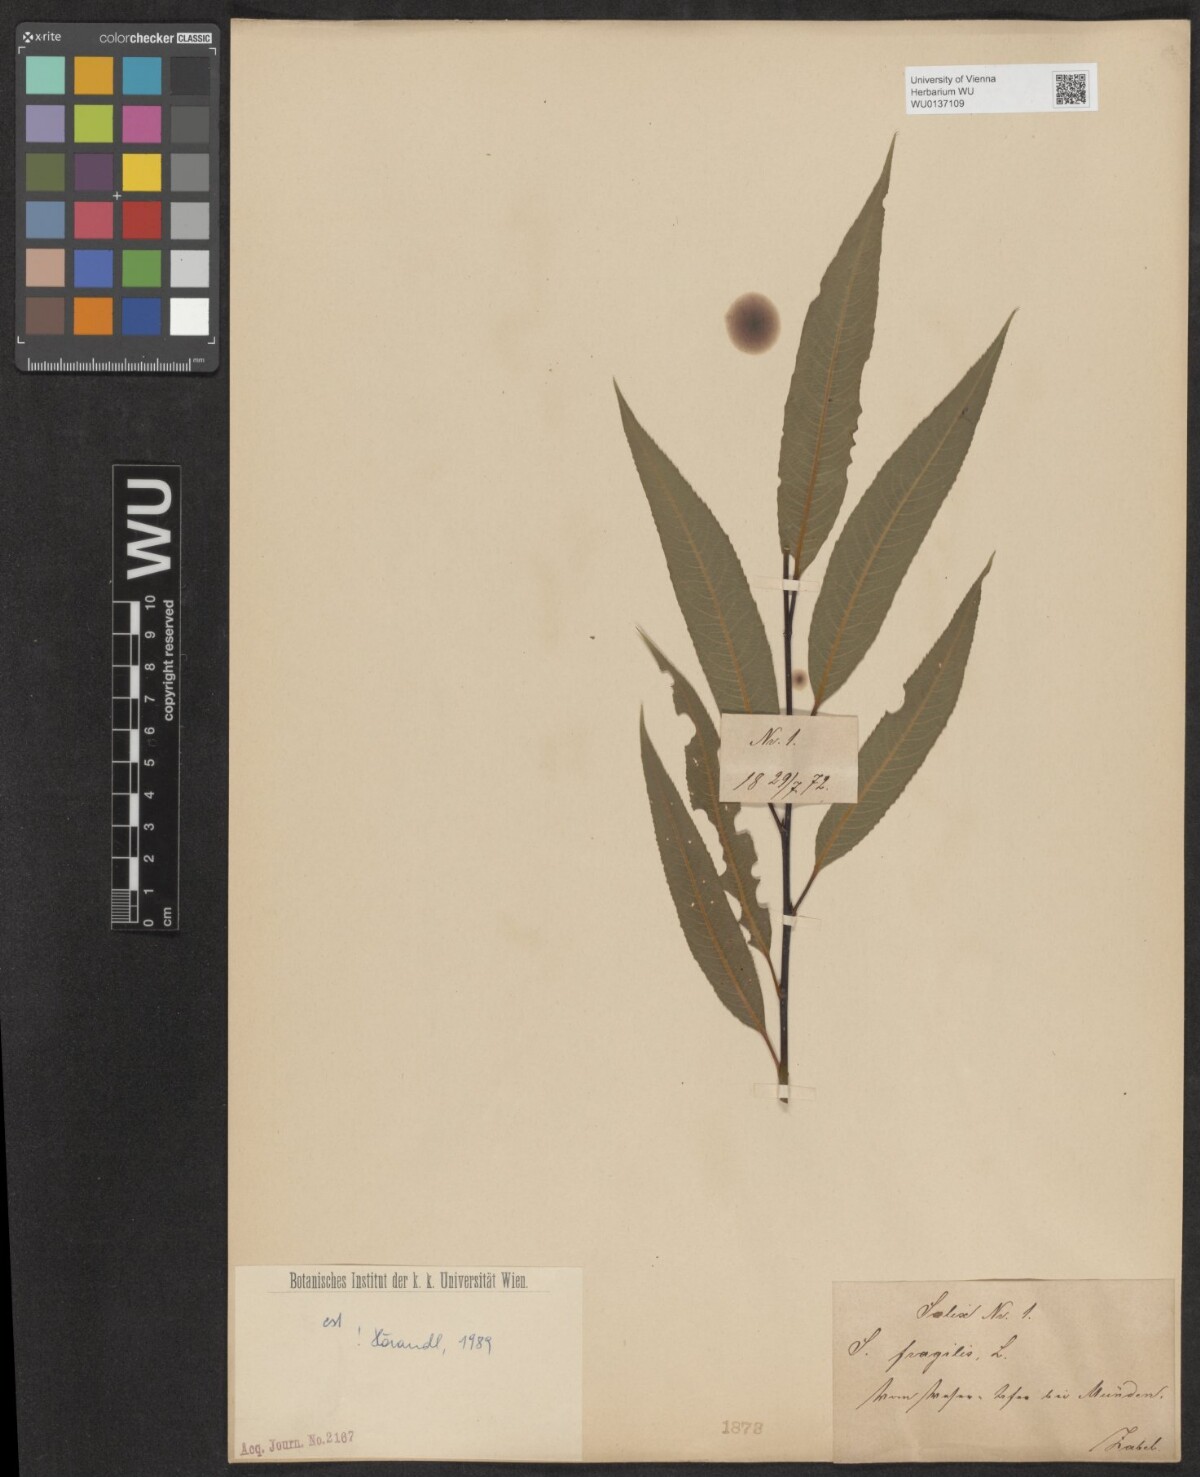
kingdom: Plantae
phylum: Tracheophyta
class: Magnoliopsida
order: Malpighiales
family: Salicaceae
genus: Salix
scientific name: Salix fragilis
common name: Crack willow
